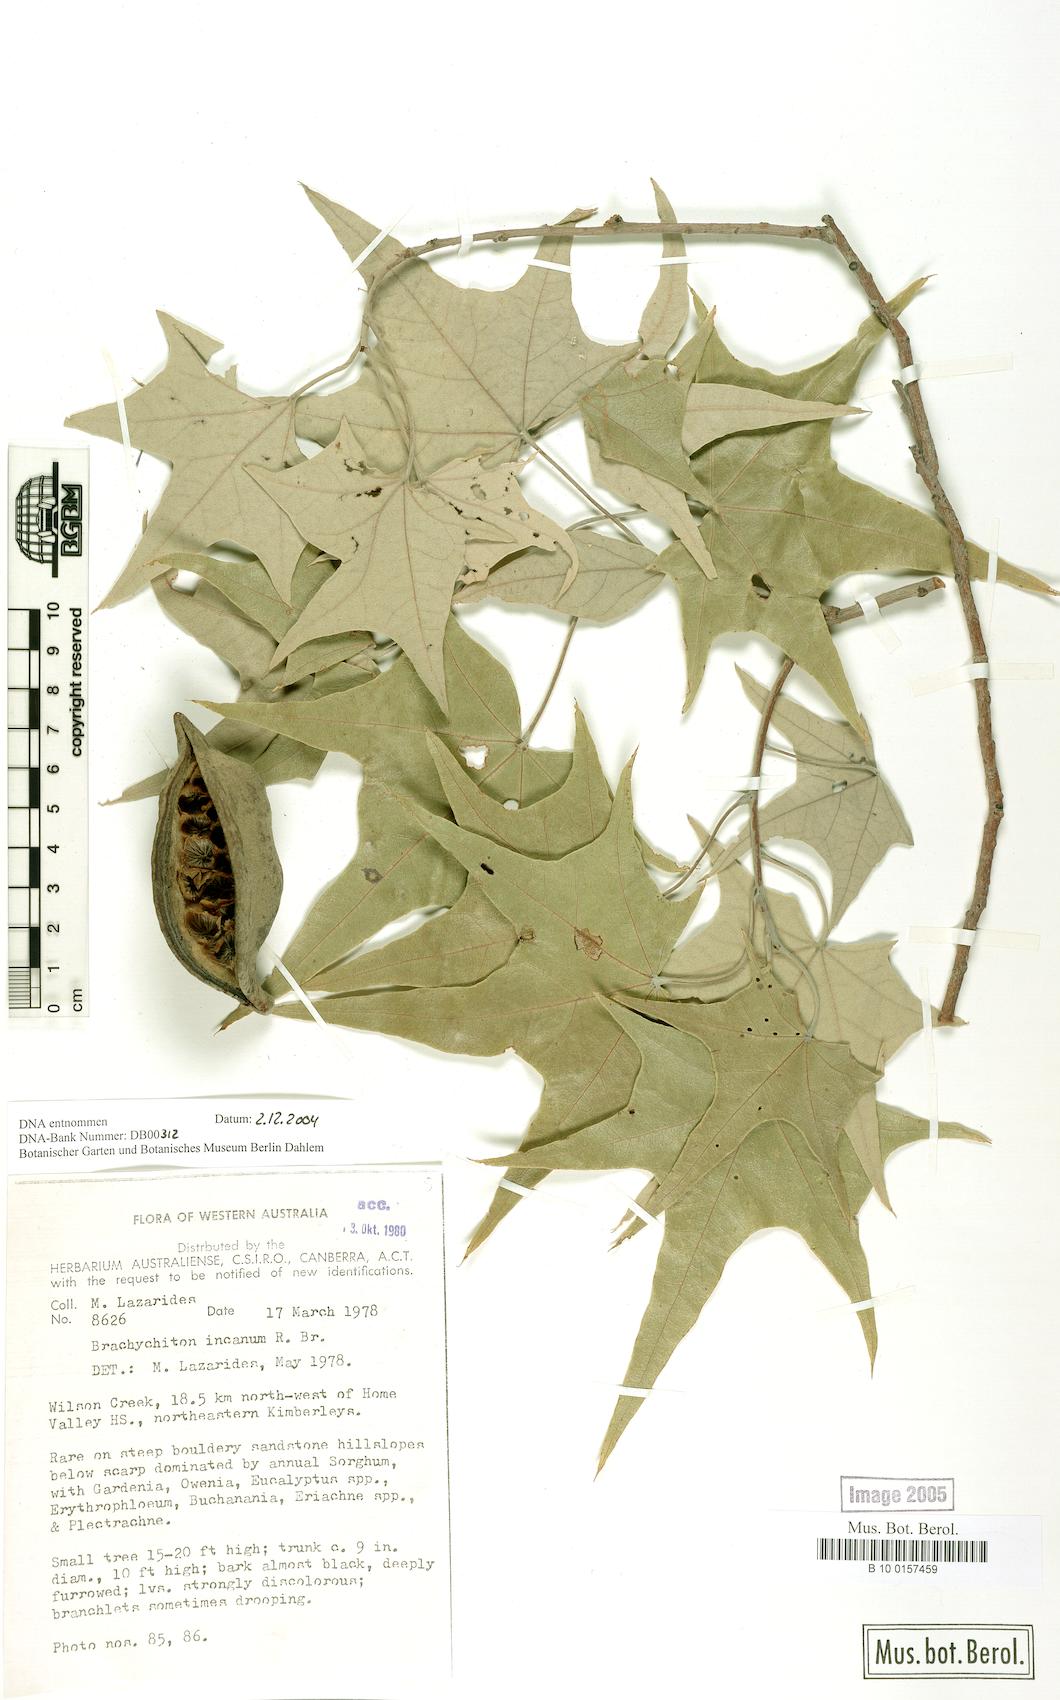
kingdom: Plantae
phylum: Tracheophyta
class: Magnoliopsida
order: Malvales
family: Malvaceae
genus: Brachychiton
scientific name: Brachychiton incanum
